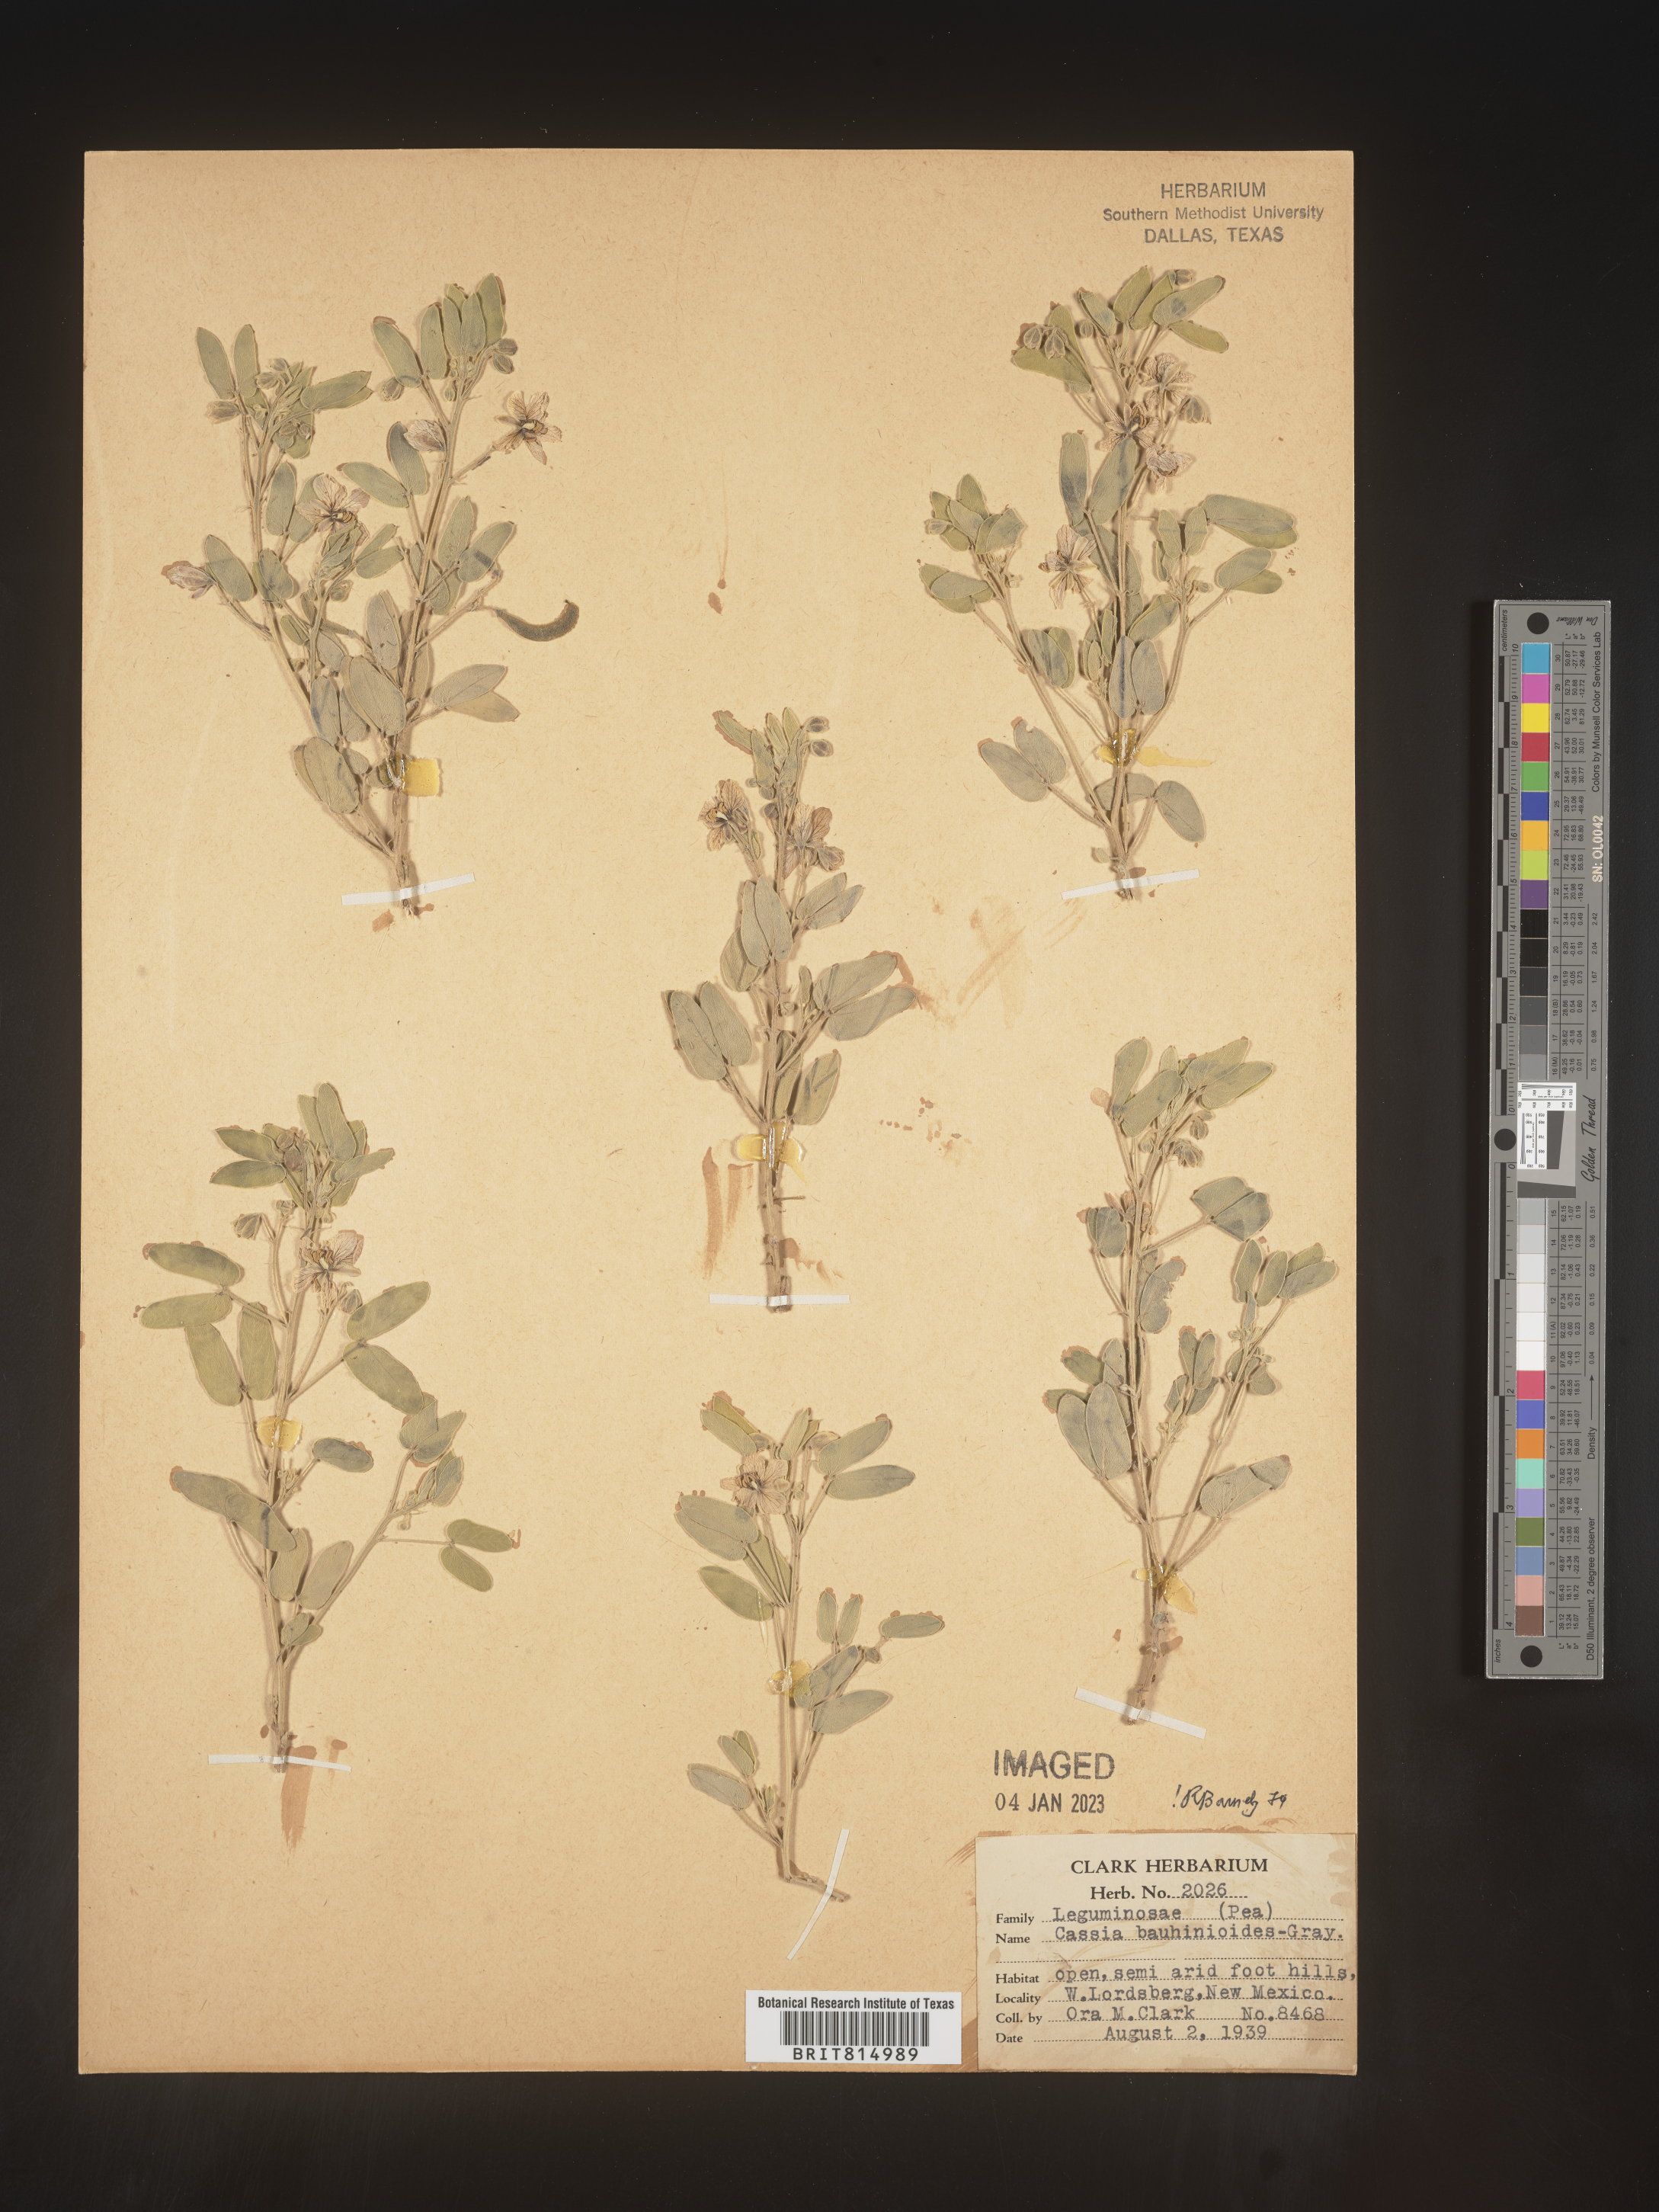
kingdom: Plantae
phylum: Tracheophyta
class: Magnoliopsida
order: Fabales
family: Fabaceae
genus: Senna
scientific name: Senna bauhinioides
